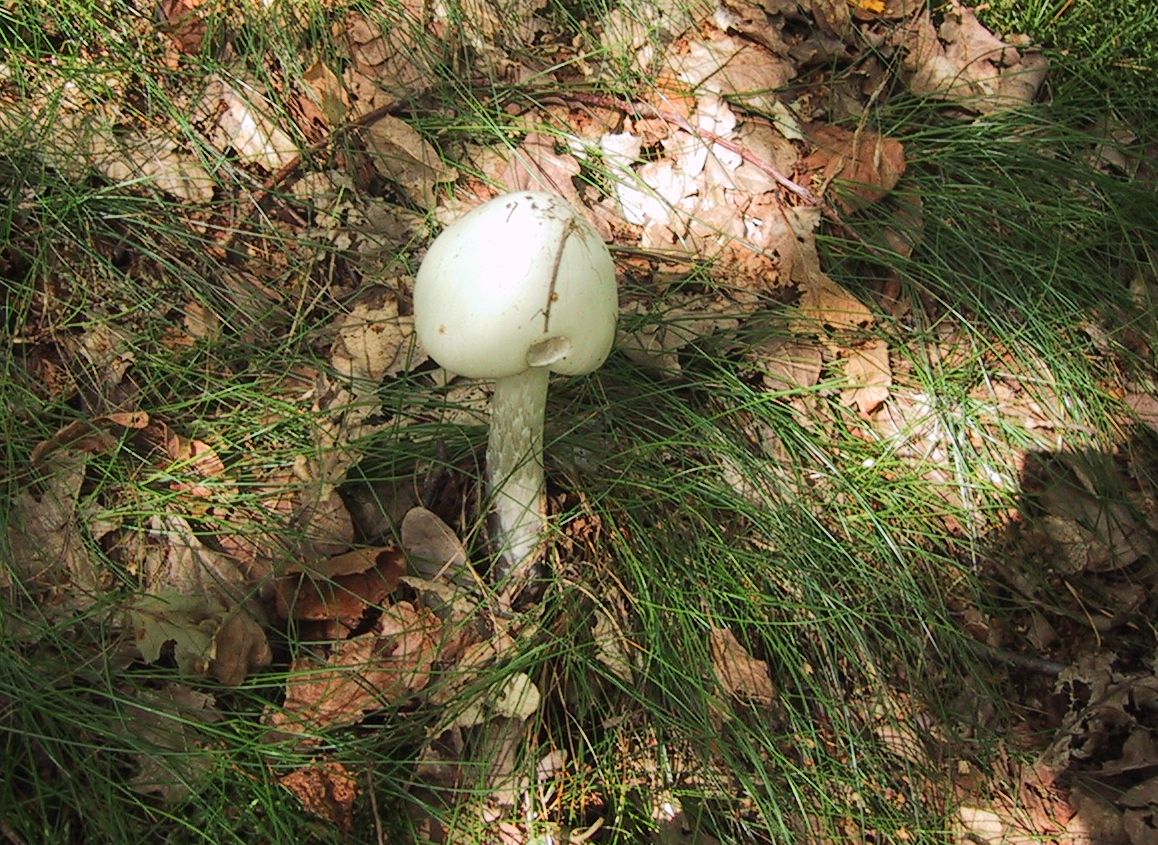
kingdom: Fungi
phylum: Basidiomycota
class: Agaricomycetes
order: Agaricales
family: Amanitaceae
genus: Amanita
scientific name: Amanita virosa
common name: snehvid fluesvamp
